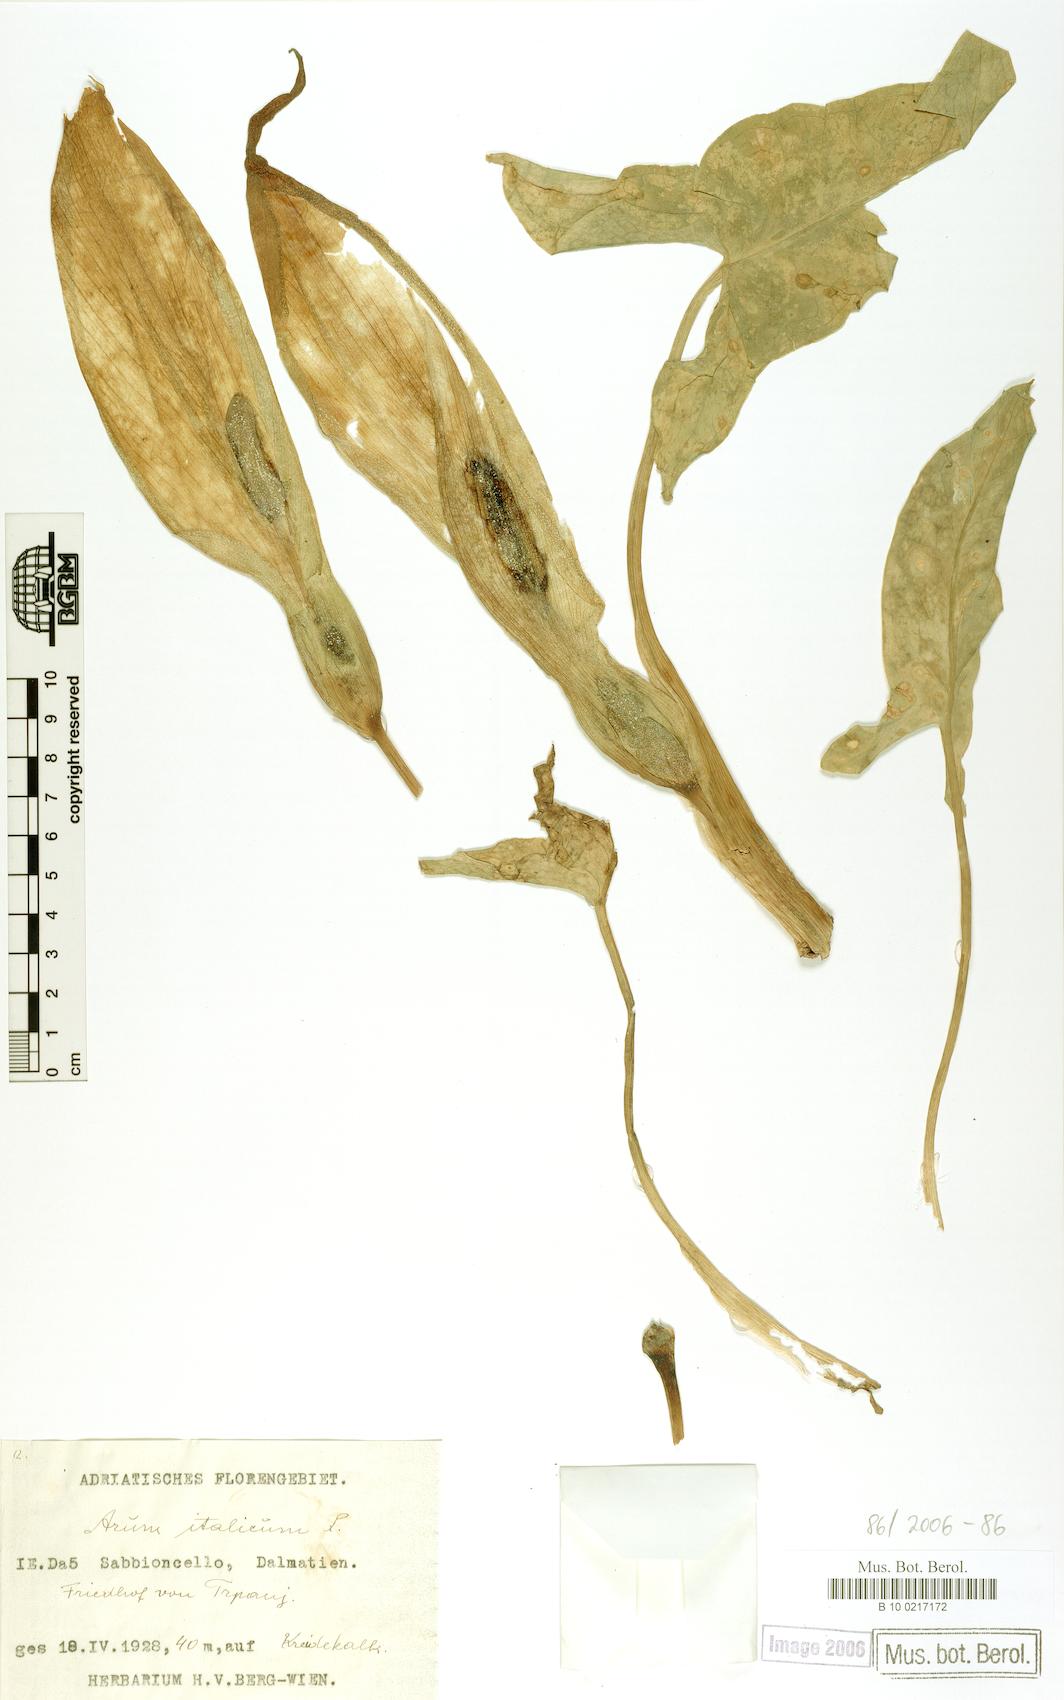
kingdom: Plantae
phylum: Tracheophyta
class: Liliopsida
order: Alismatales
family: Araceae
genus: Arum
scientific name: Arum italicum
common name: Italian lords-and-ladies
